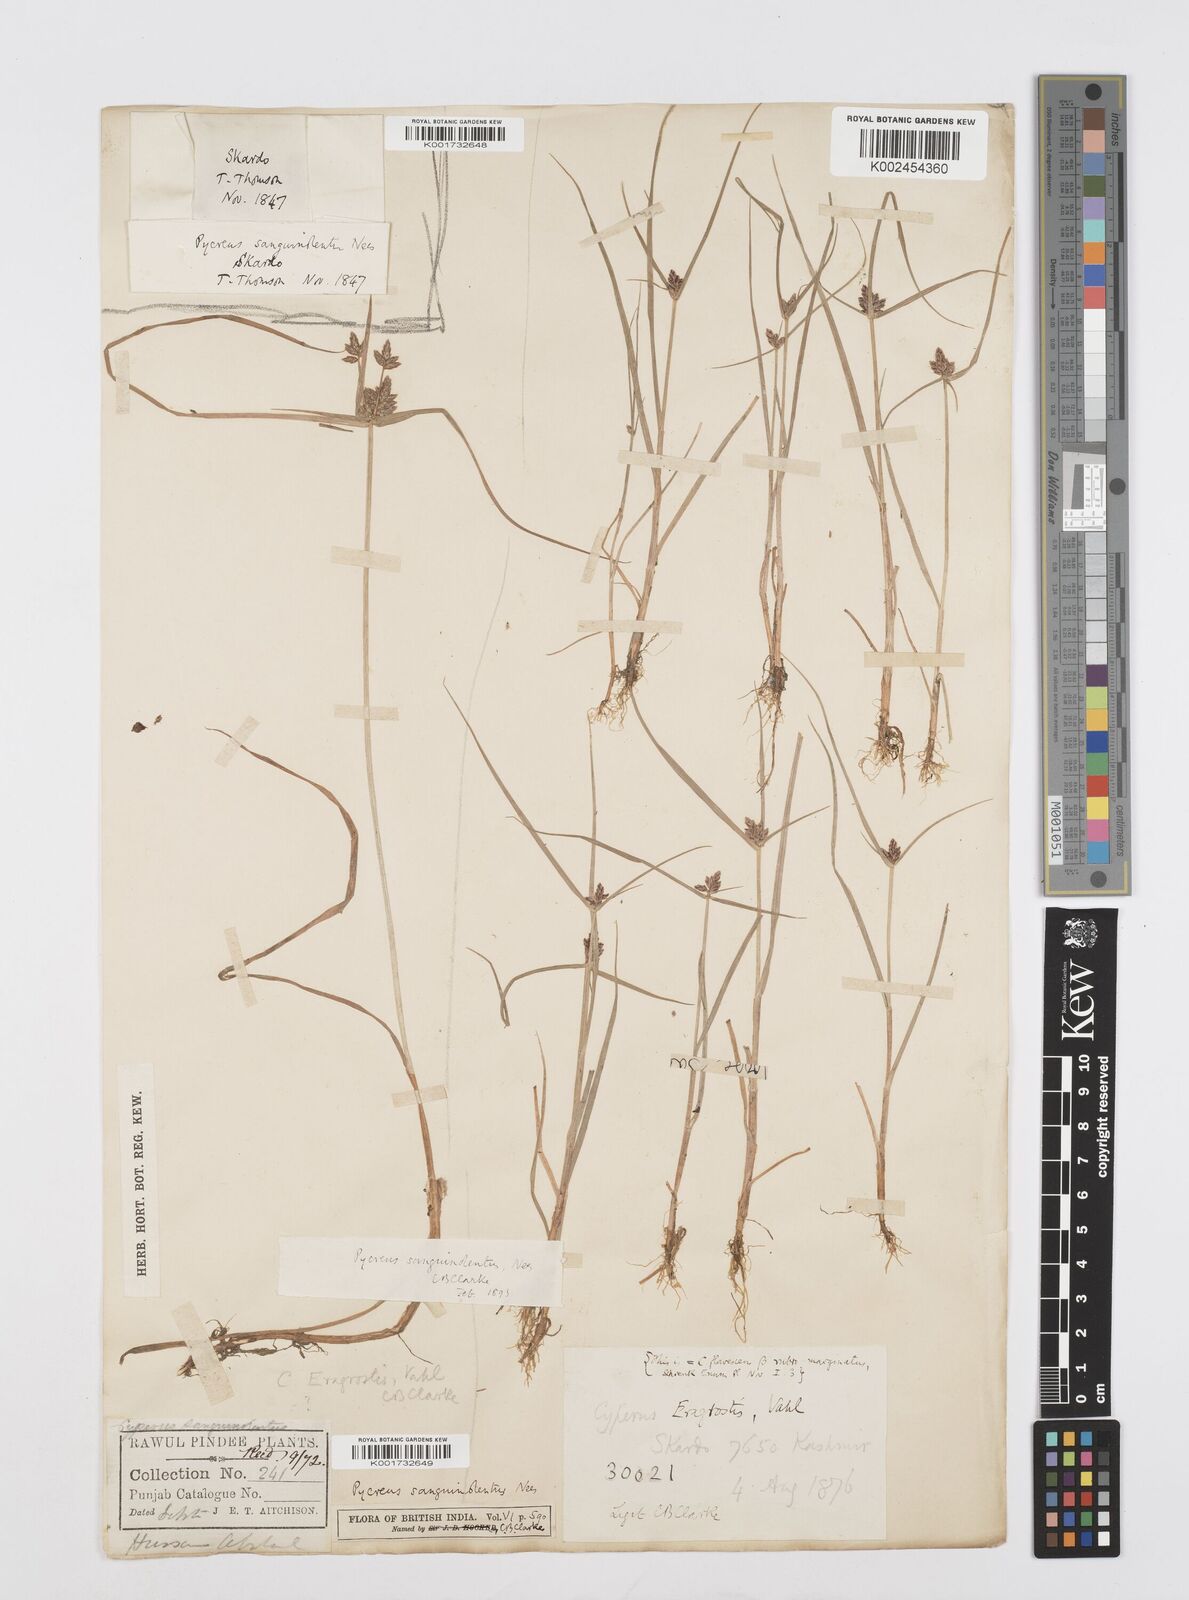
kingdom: Plantae
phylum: Tracheophyta
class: Liliopsida
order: Poales
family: Cyperaceae
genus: Cyperus
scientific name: Cyperus sanguinolentus
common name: Purpleglume flatsedge
